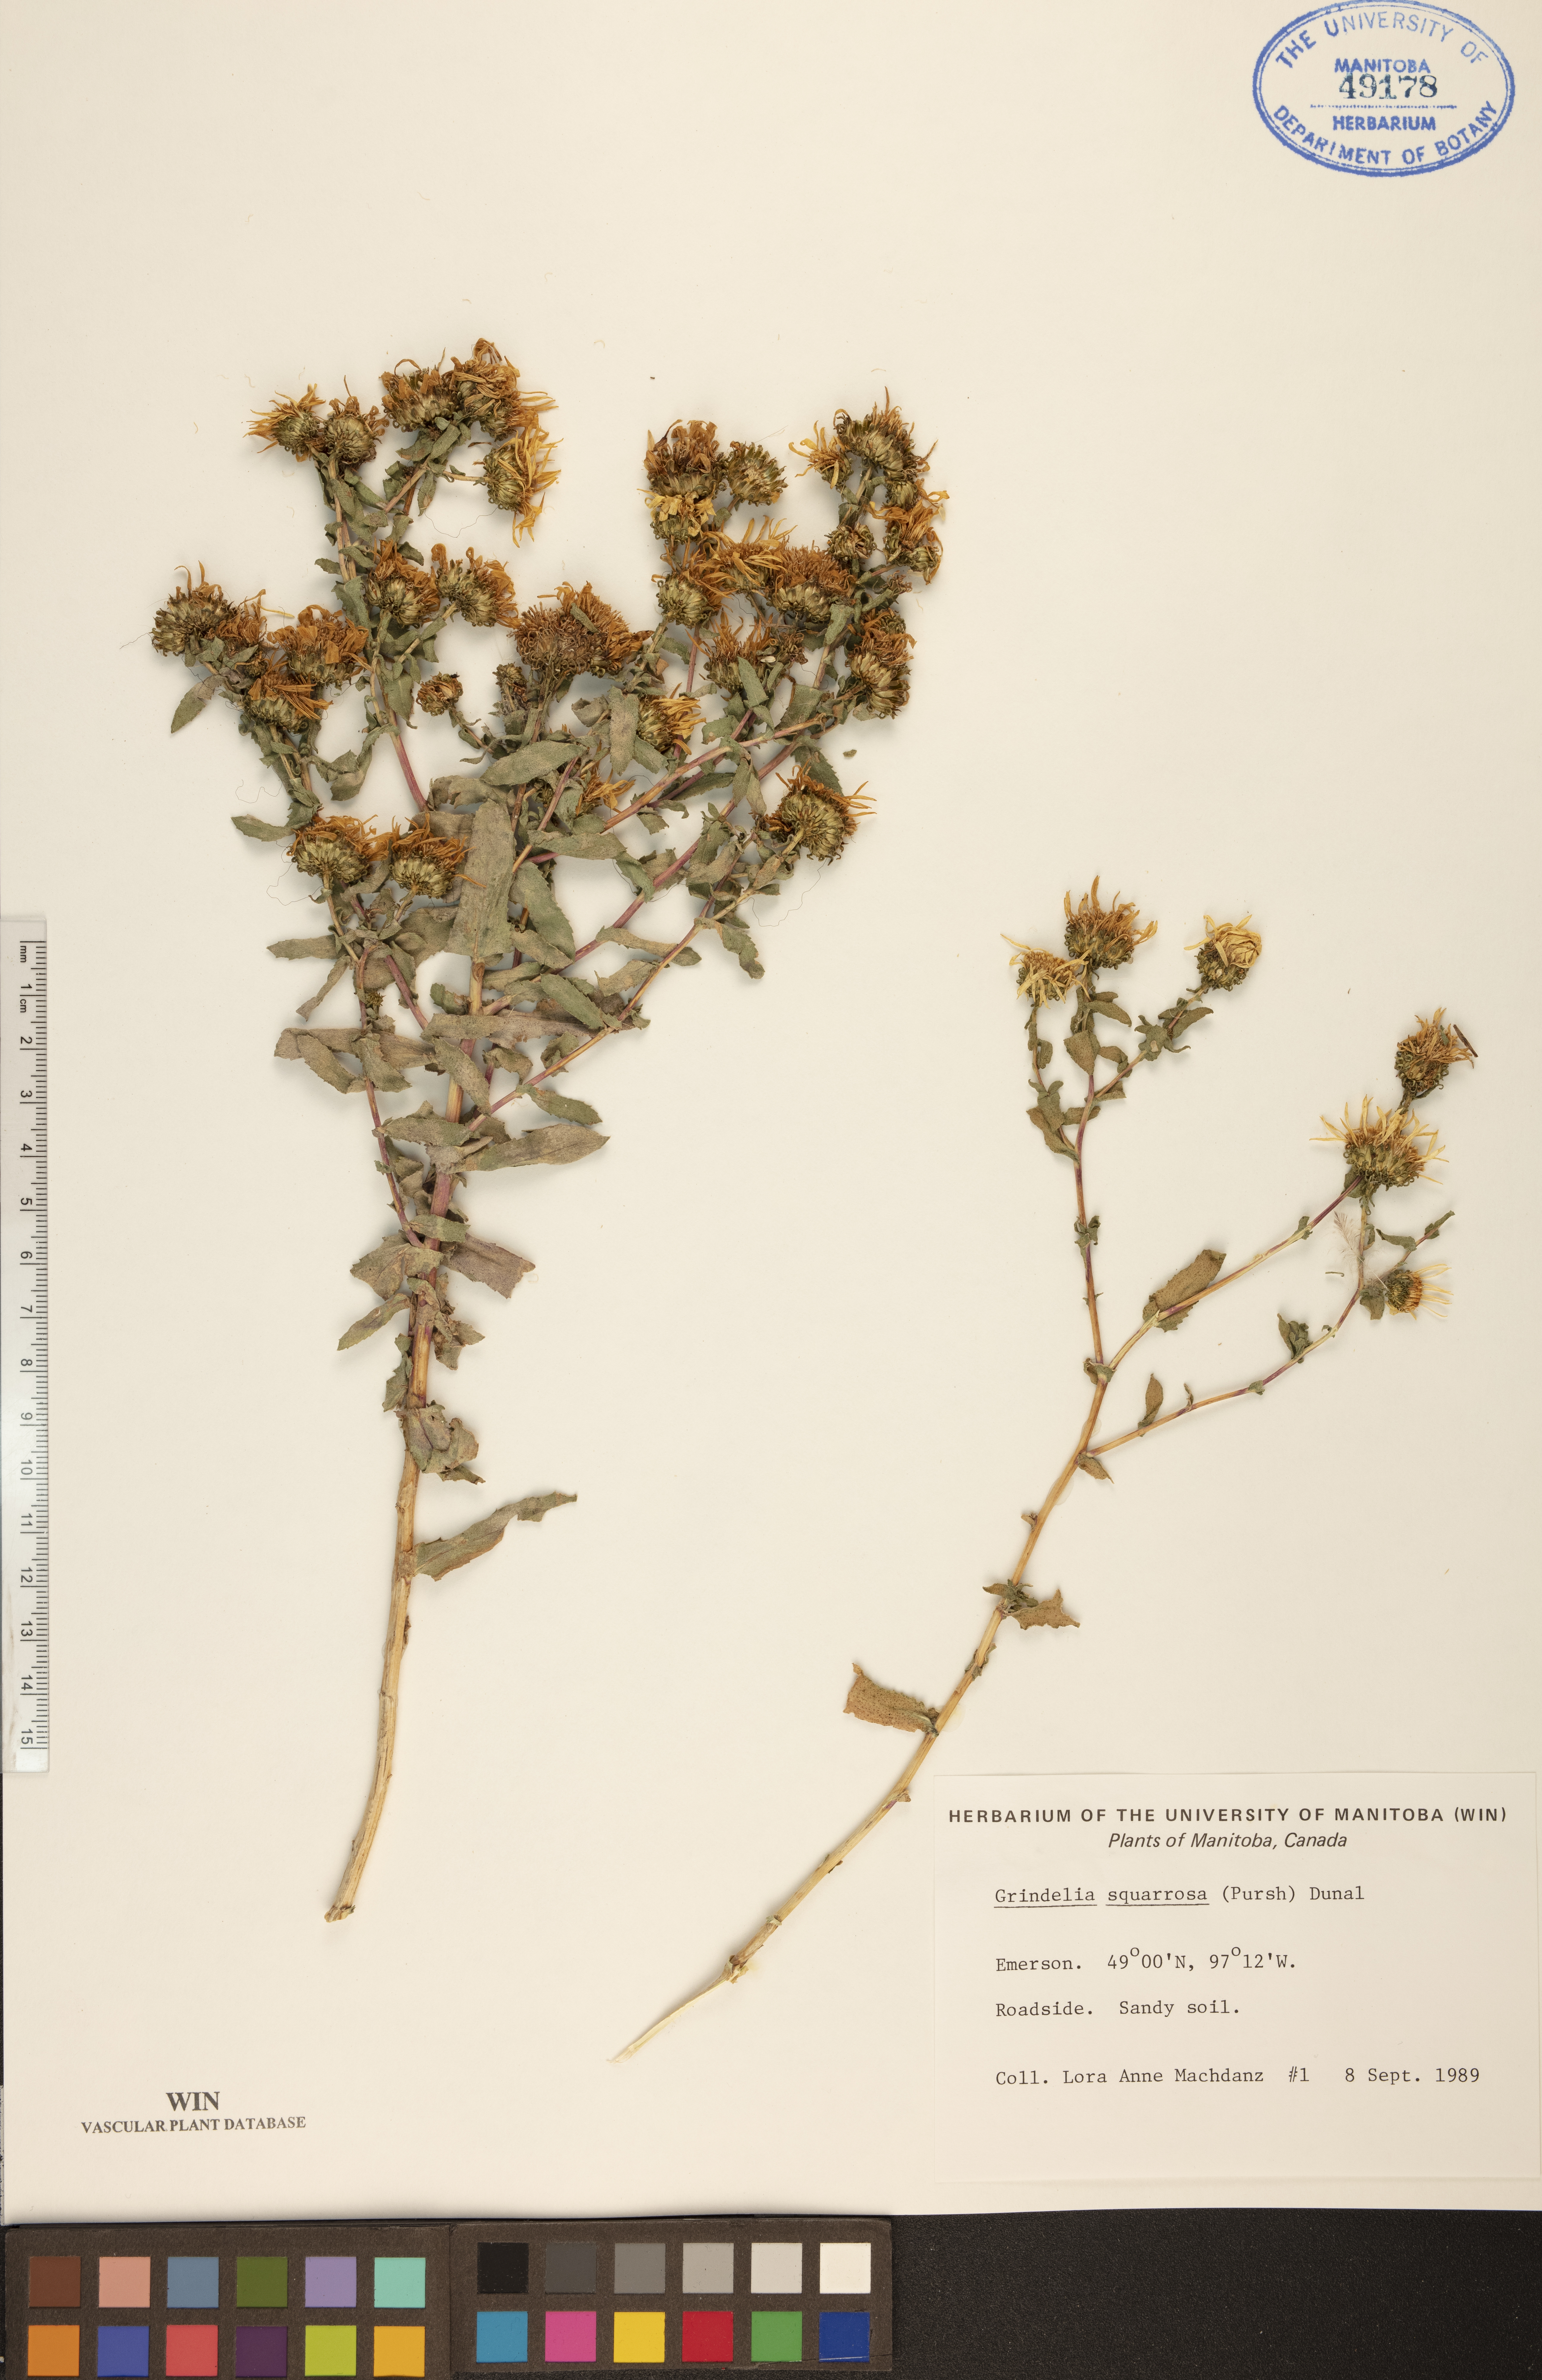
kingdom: Plantae
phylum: Tracheophyta
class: Magnoliopsida
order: Asterales
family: Asteraceae
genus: Grindelia
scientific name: Grindelia squarrosa
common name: Curly-cup gumweed
